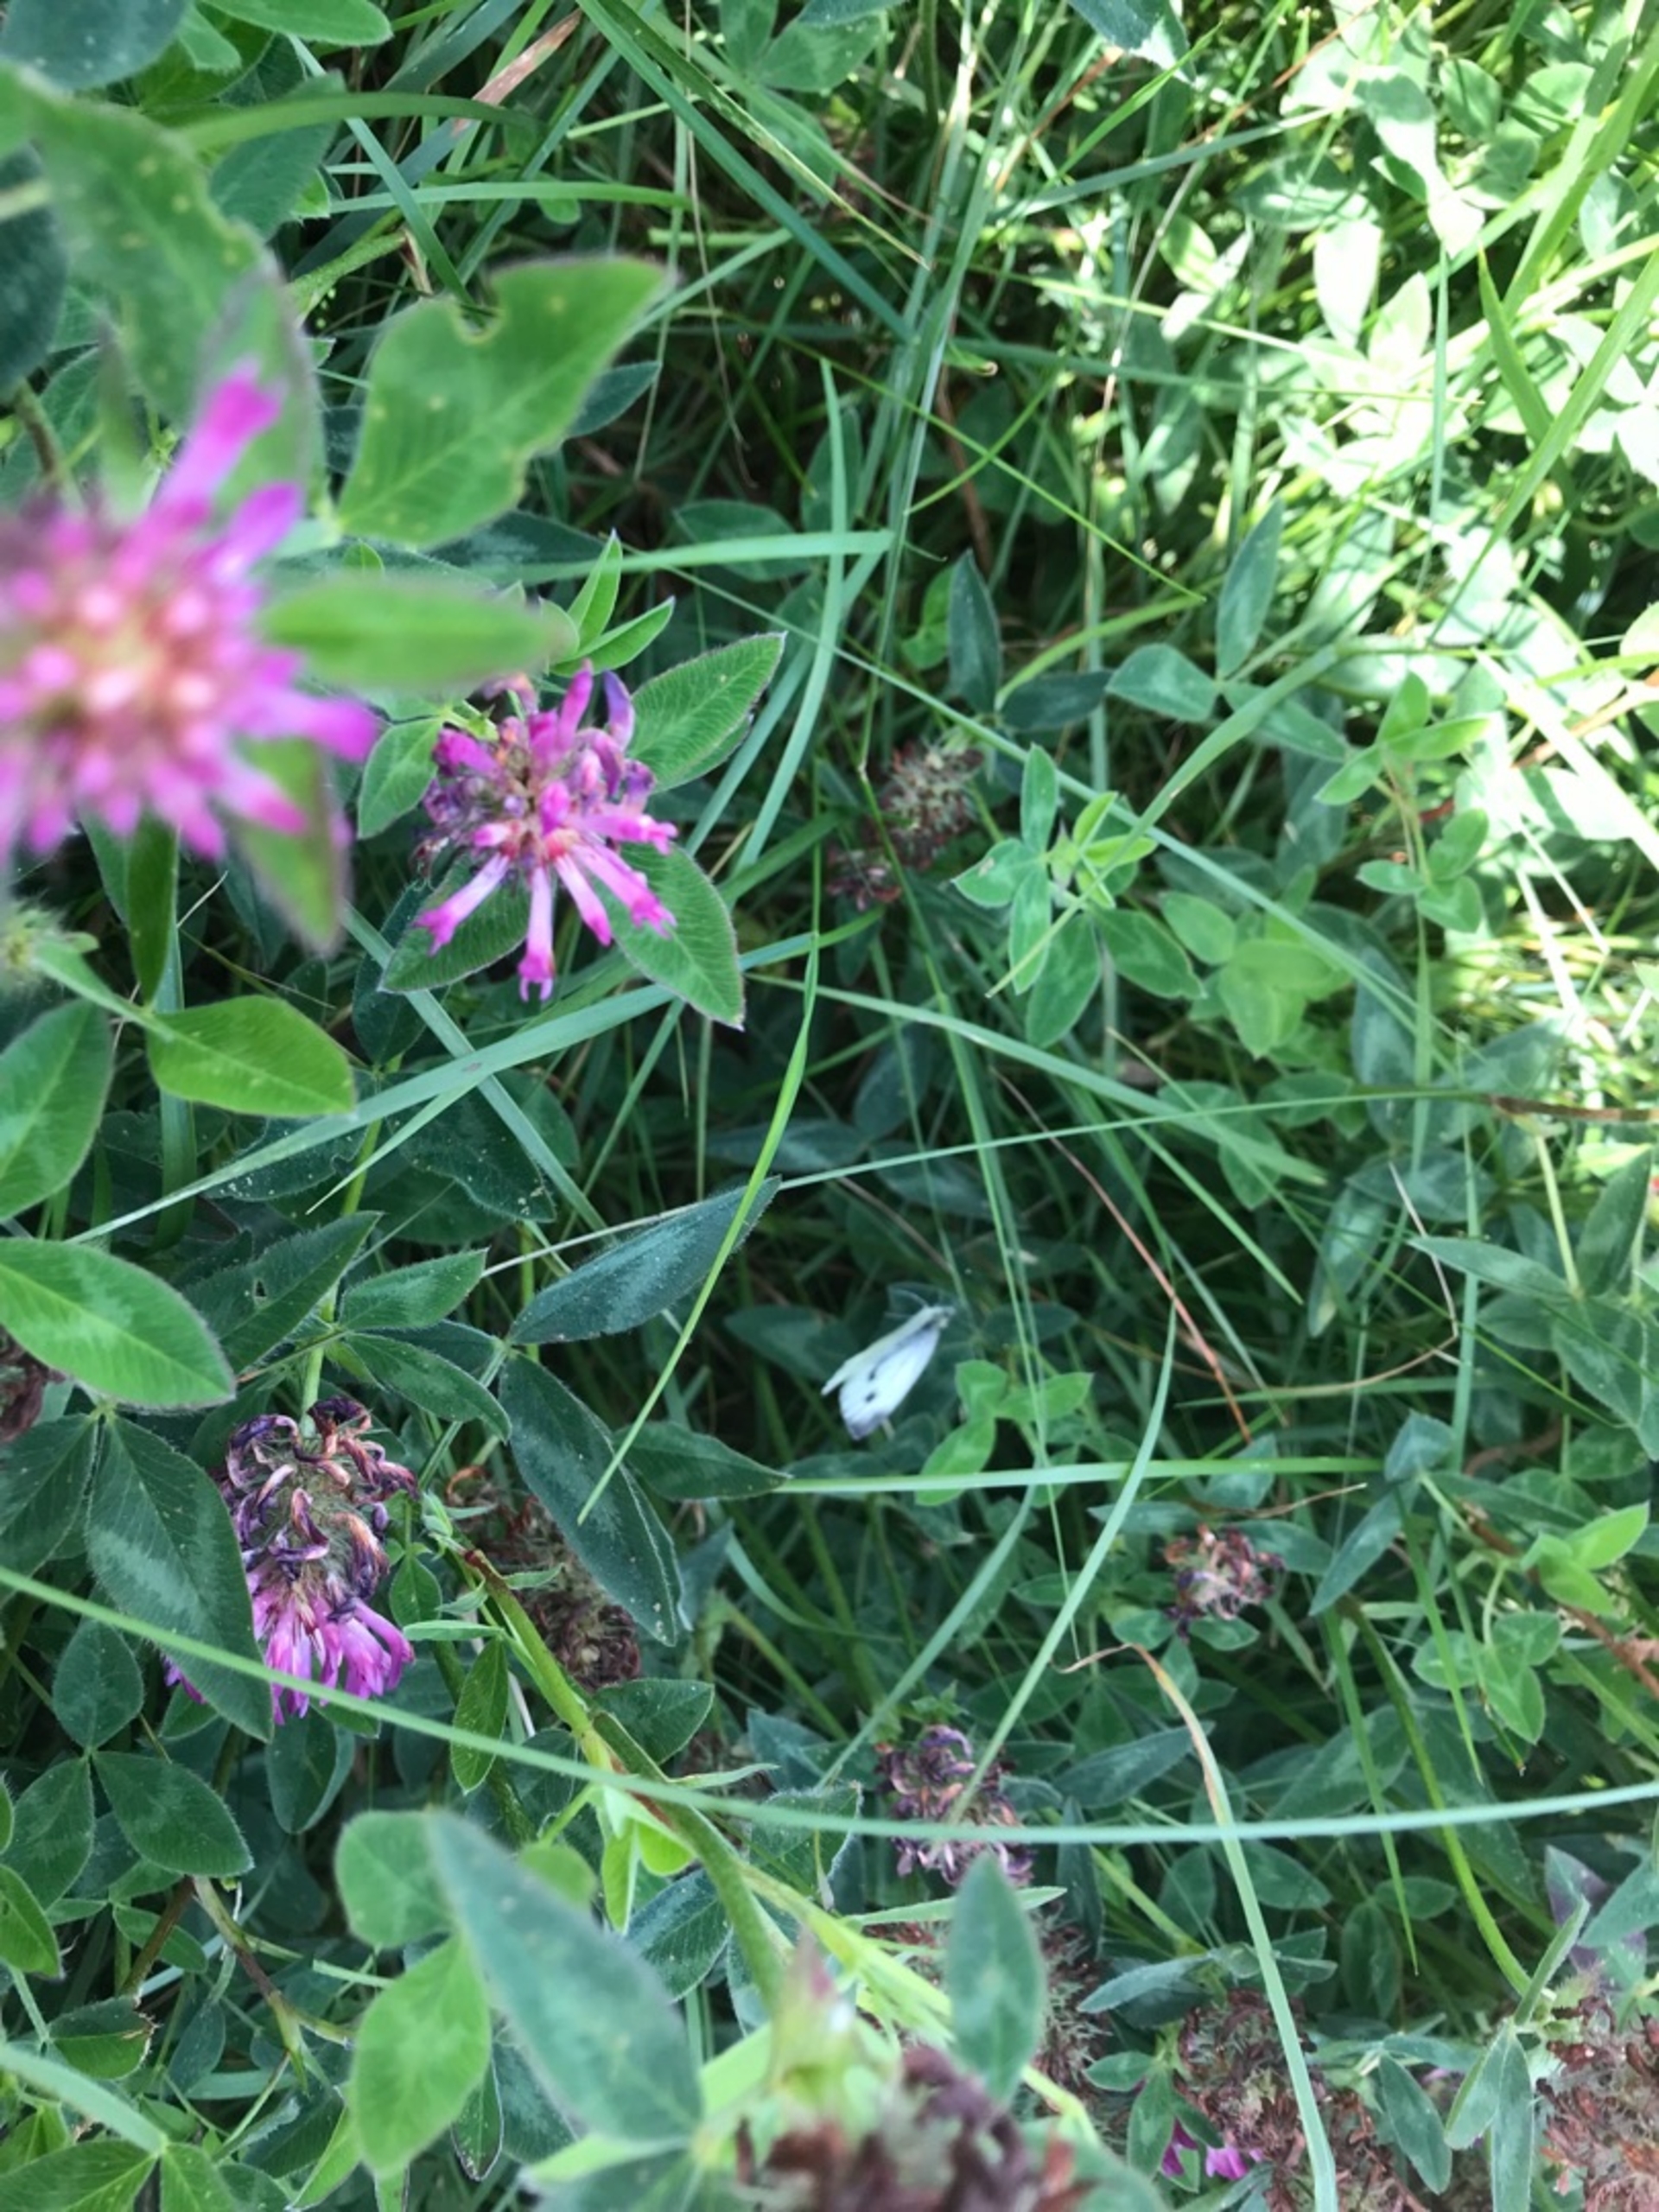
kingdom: Animalia
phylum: Arthropoda
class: Insecta
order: Lepidoptera
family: Pieridae
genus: Pieris
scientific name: Pieris napi
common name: Grønåret kålsommerfugl
